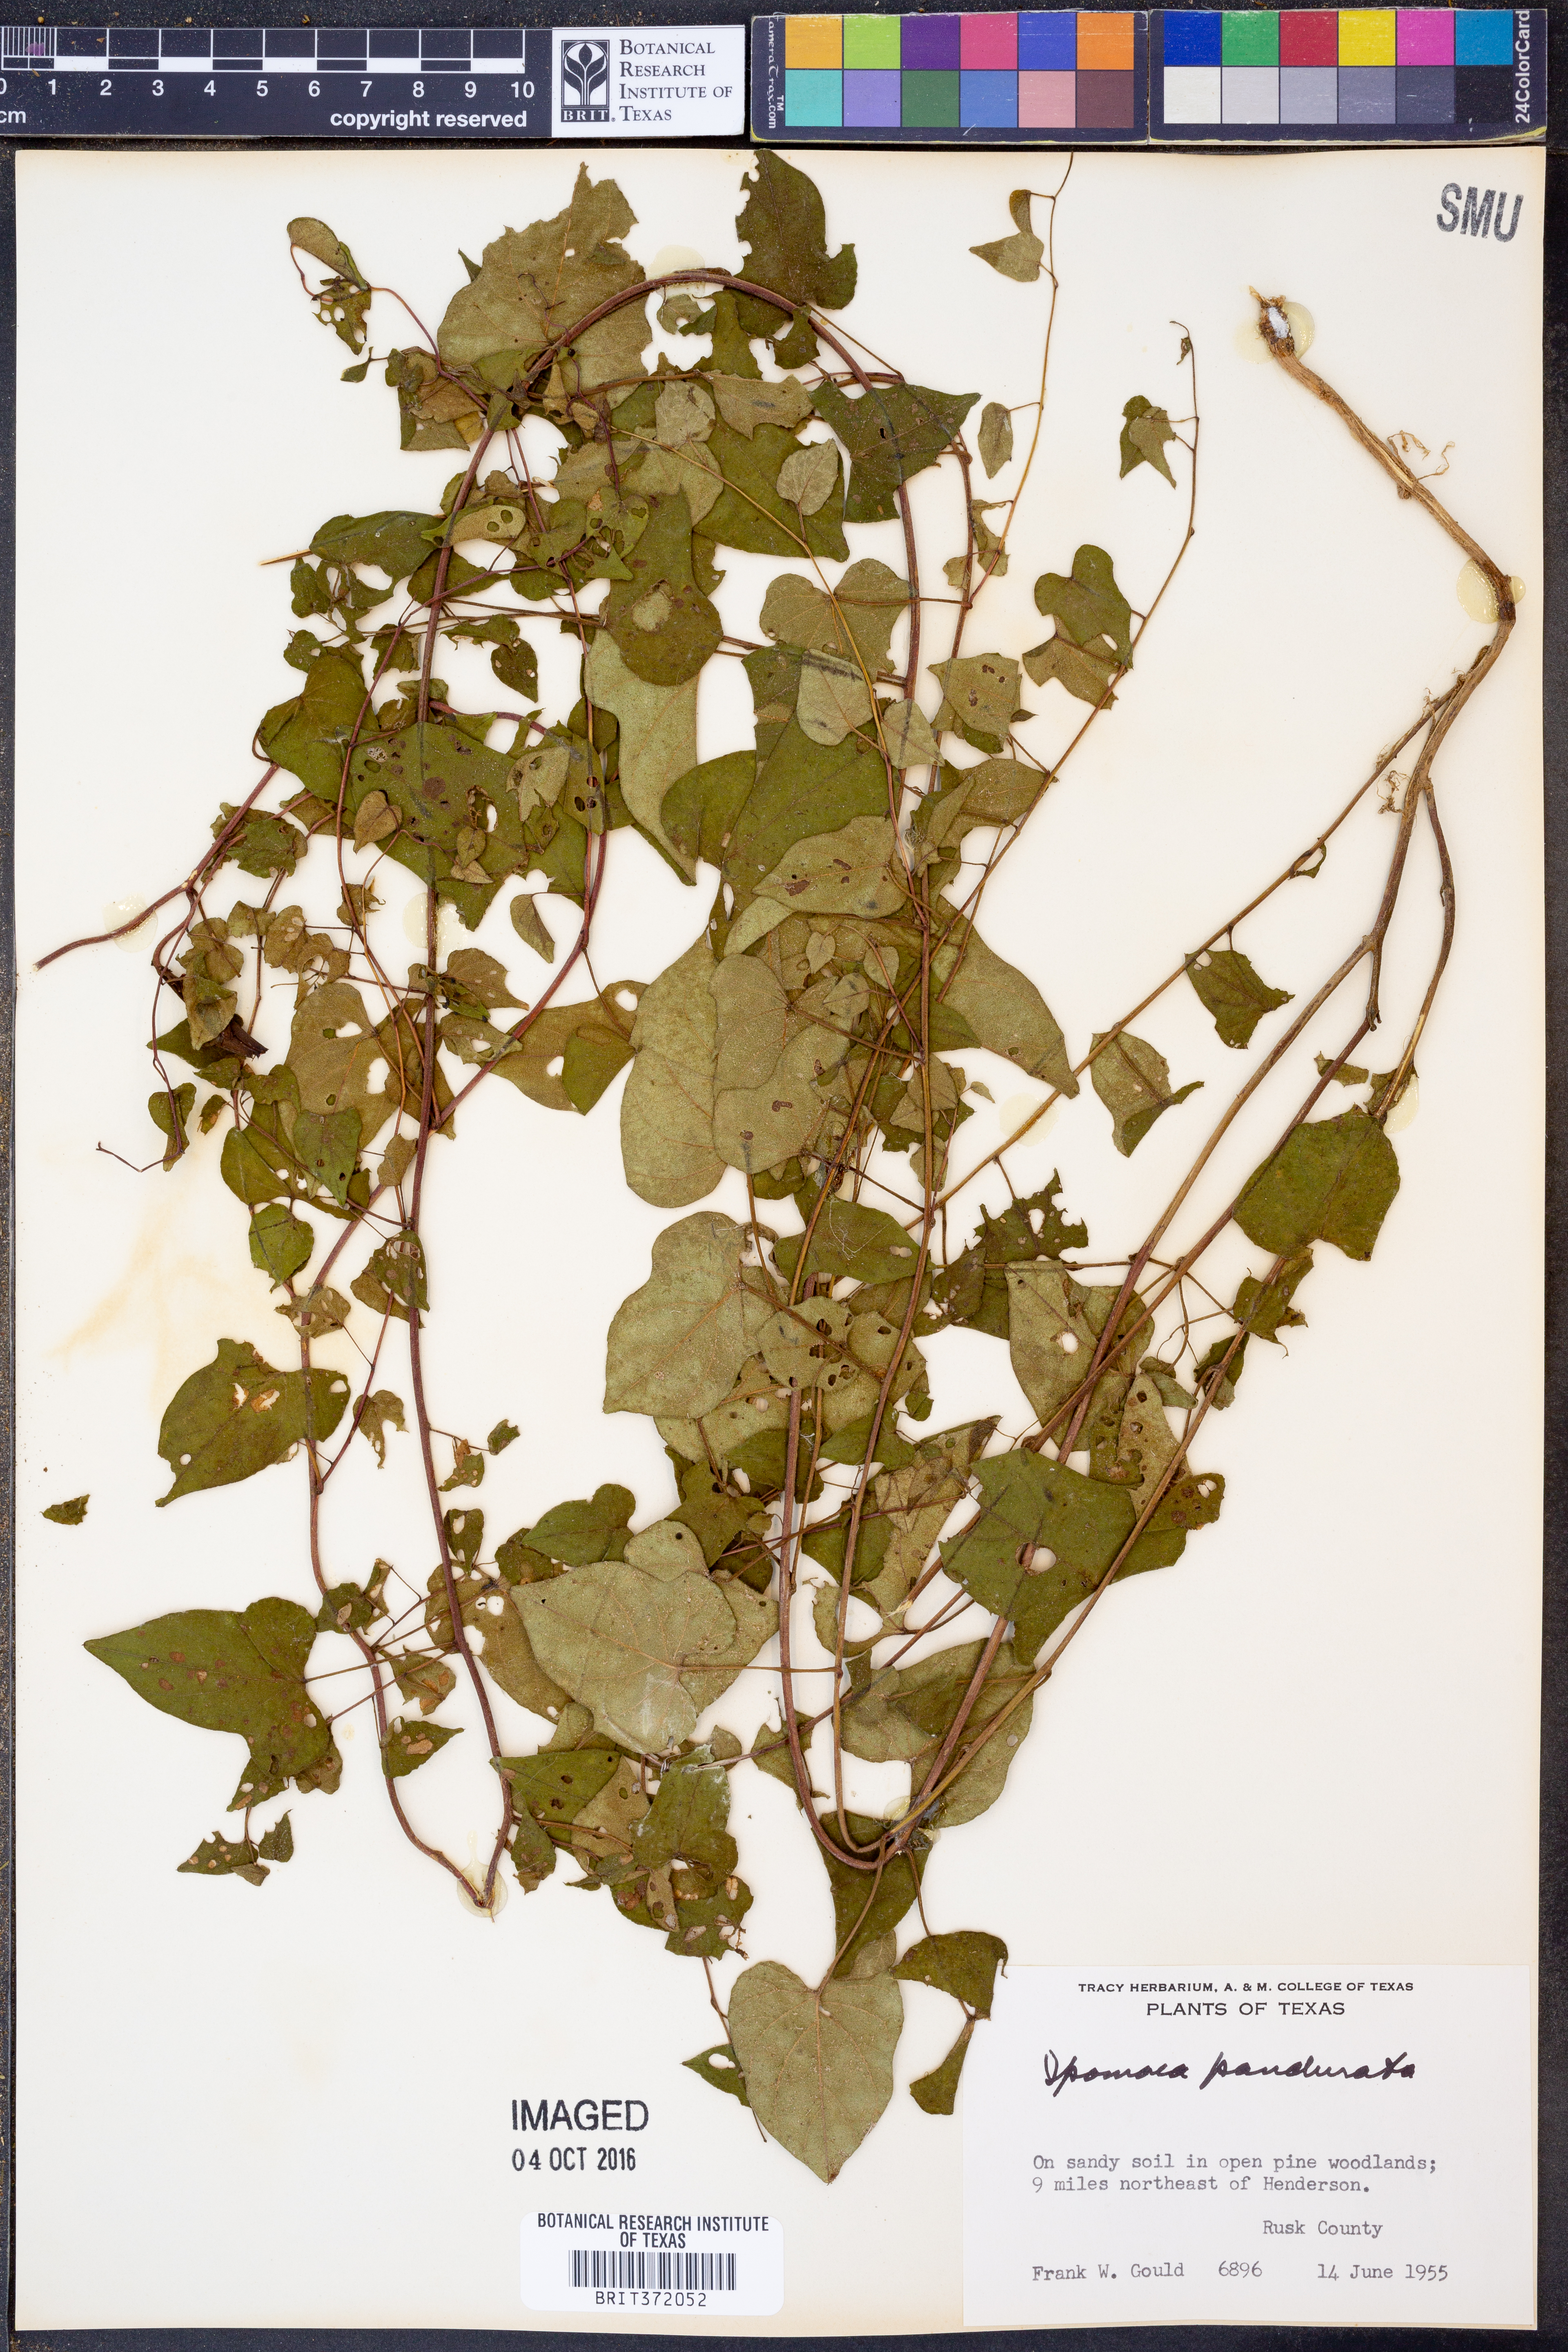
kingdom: Plantae
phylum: Tracheophyta
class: Magnoliopsida
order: Solanales
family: Convolvulaceae
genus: Ipomoea
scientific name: Ipomoea pandurata
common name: Man-of-the-earth
